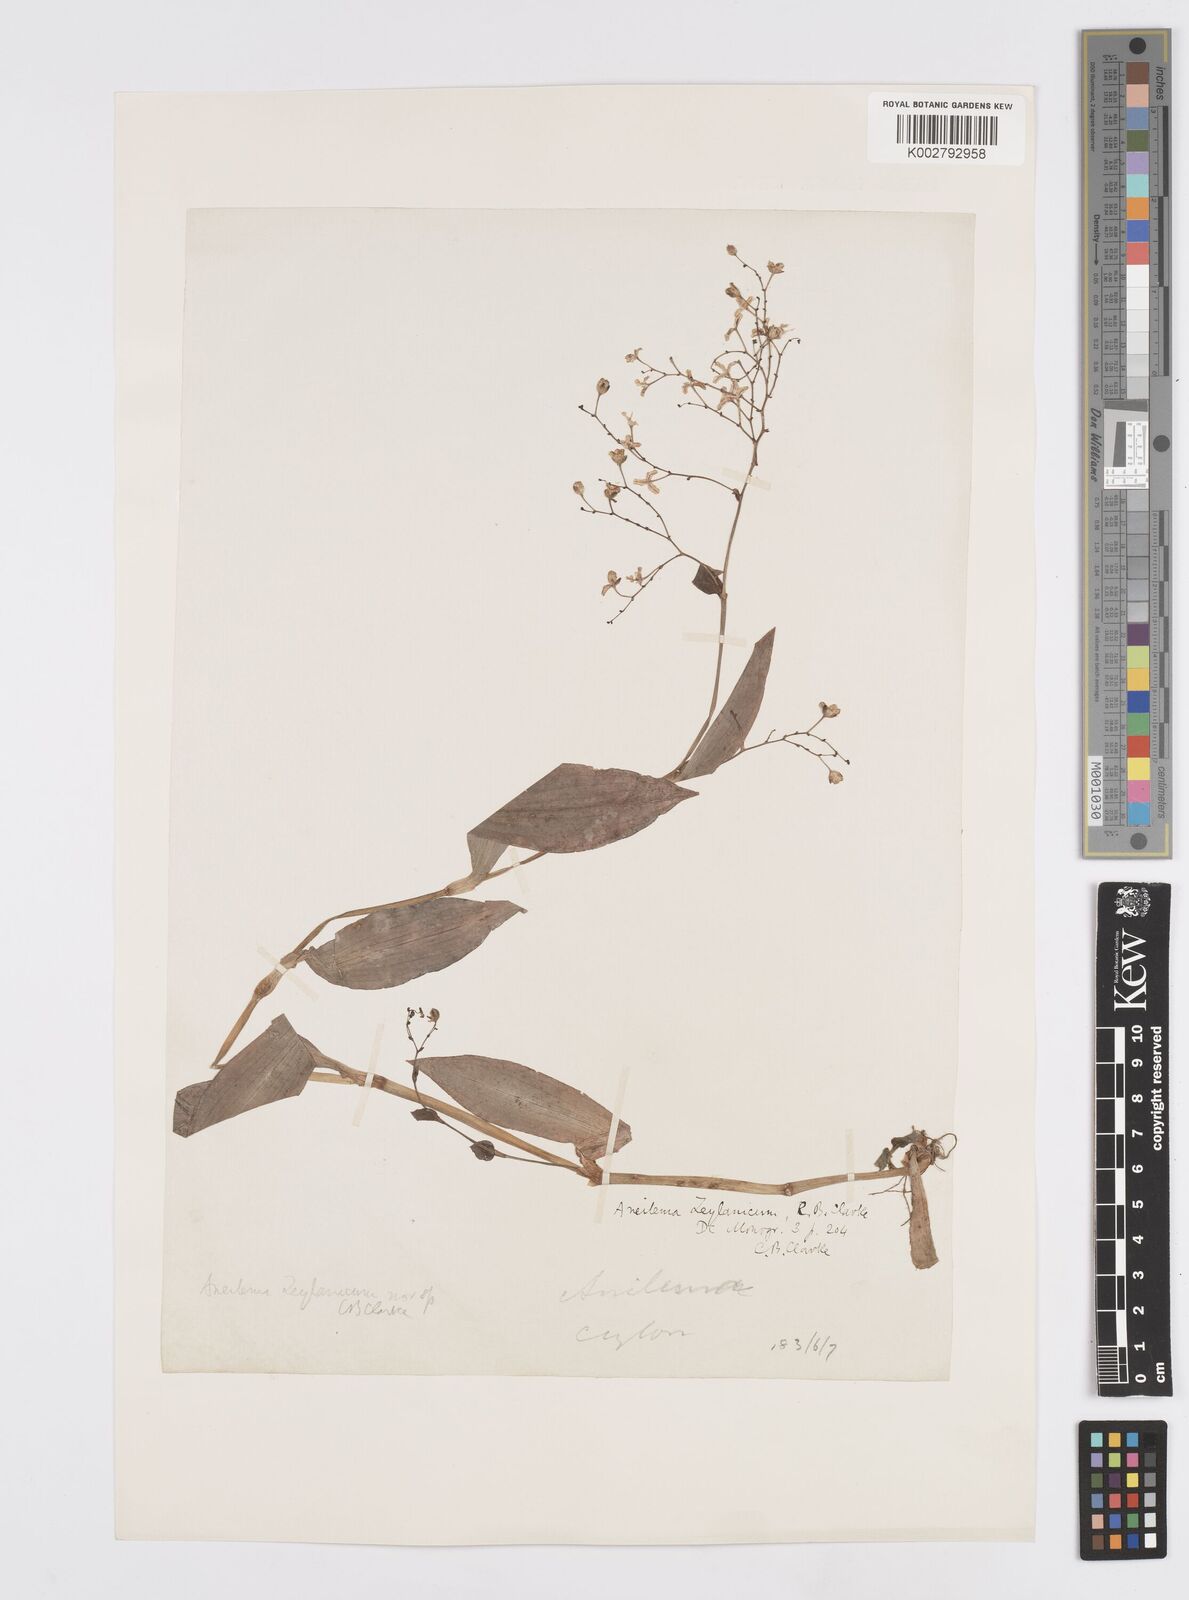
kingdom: Plantae
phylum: Tracheophyta
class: Liliopsida
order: Commelinales
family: Commelinaceae
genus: Murdannia
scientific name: Murdannia zeylanica
